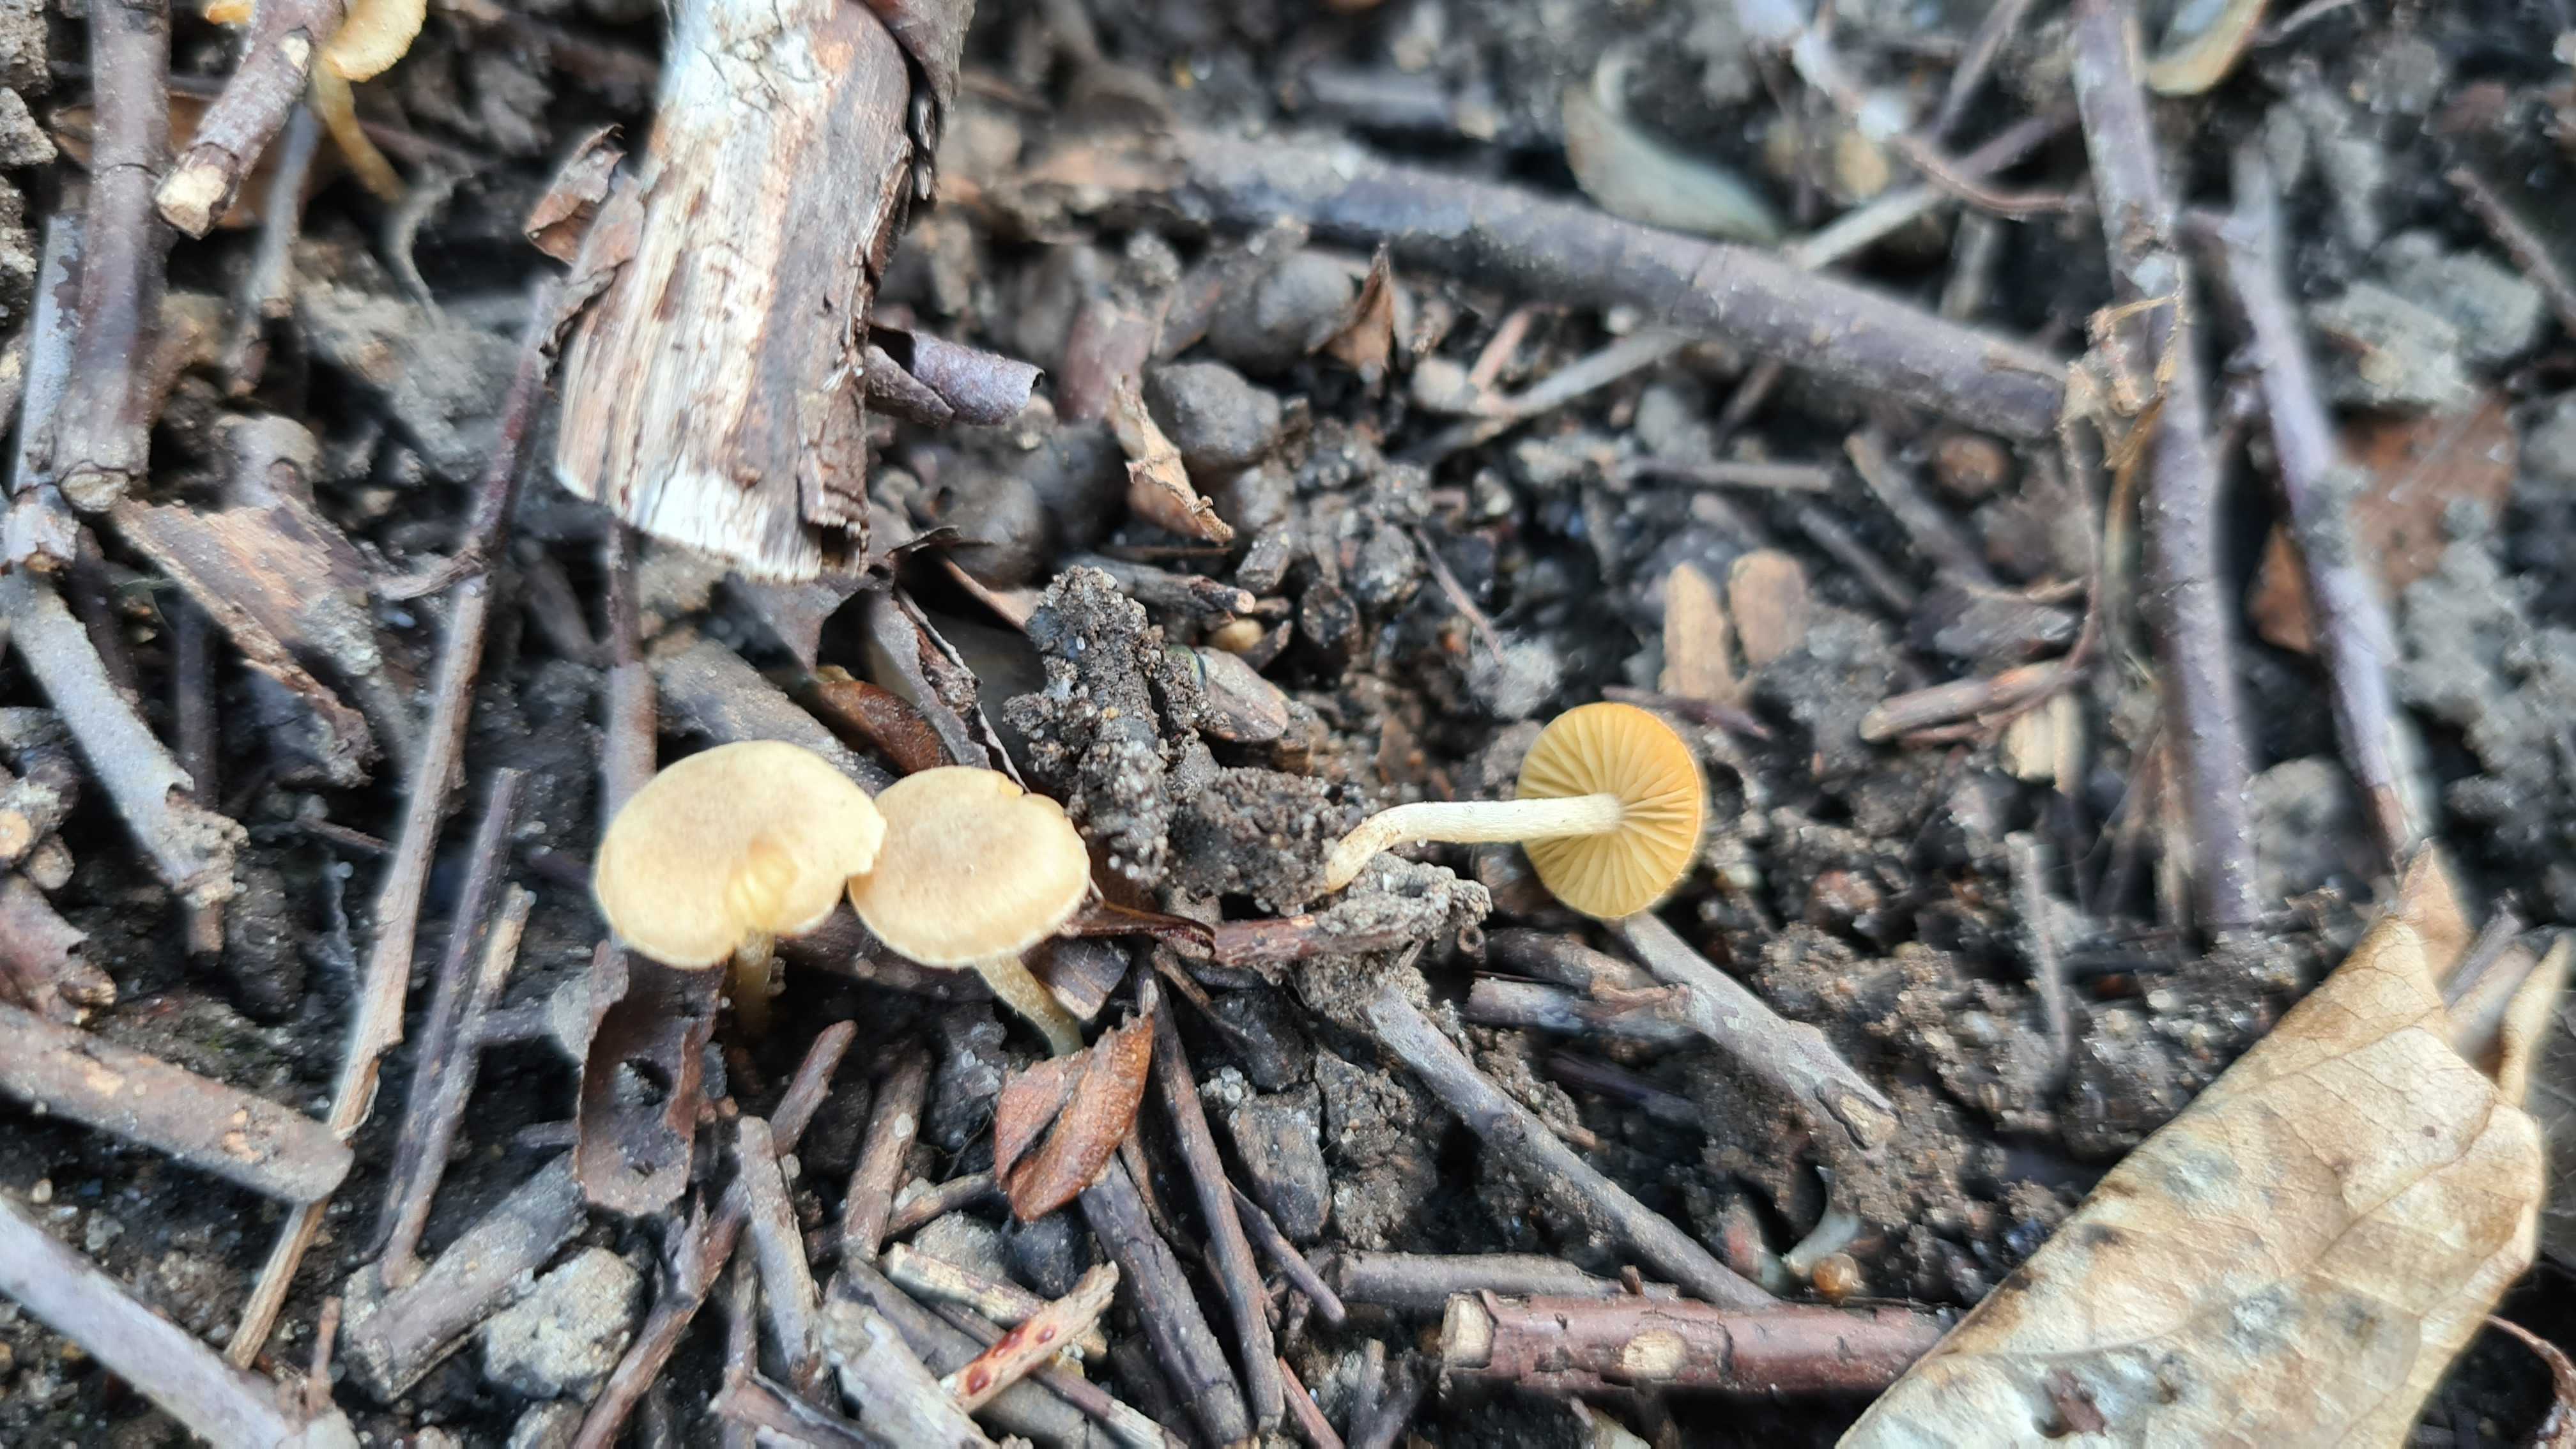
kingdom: Fungi
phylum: Basidiomycota
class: Agaricomycetes
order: Agaricales
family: Tubariaceae
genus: Tubaria
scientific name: Tubaria dispersa
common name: tjørne-fnughat
